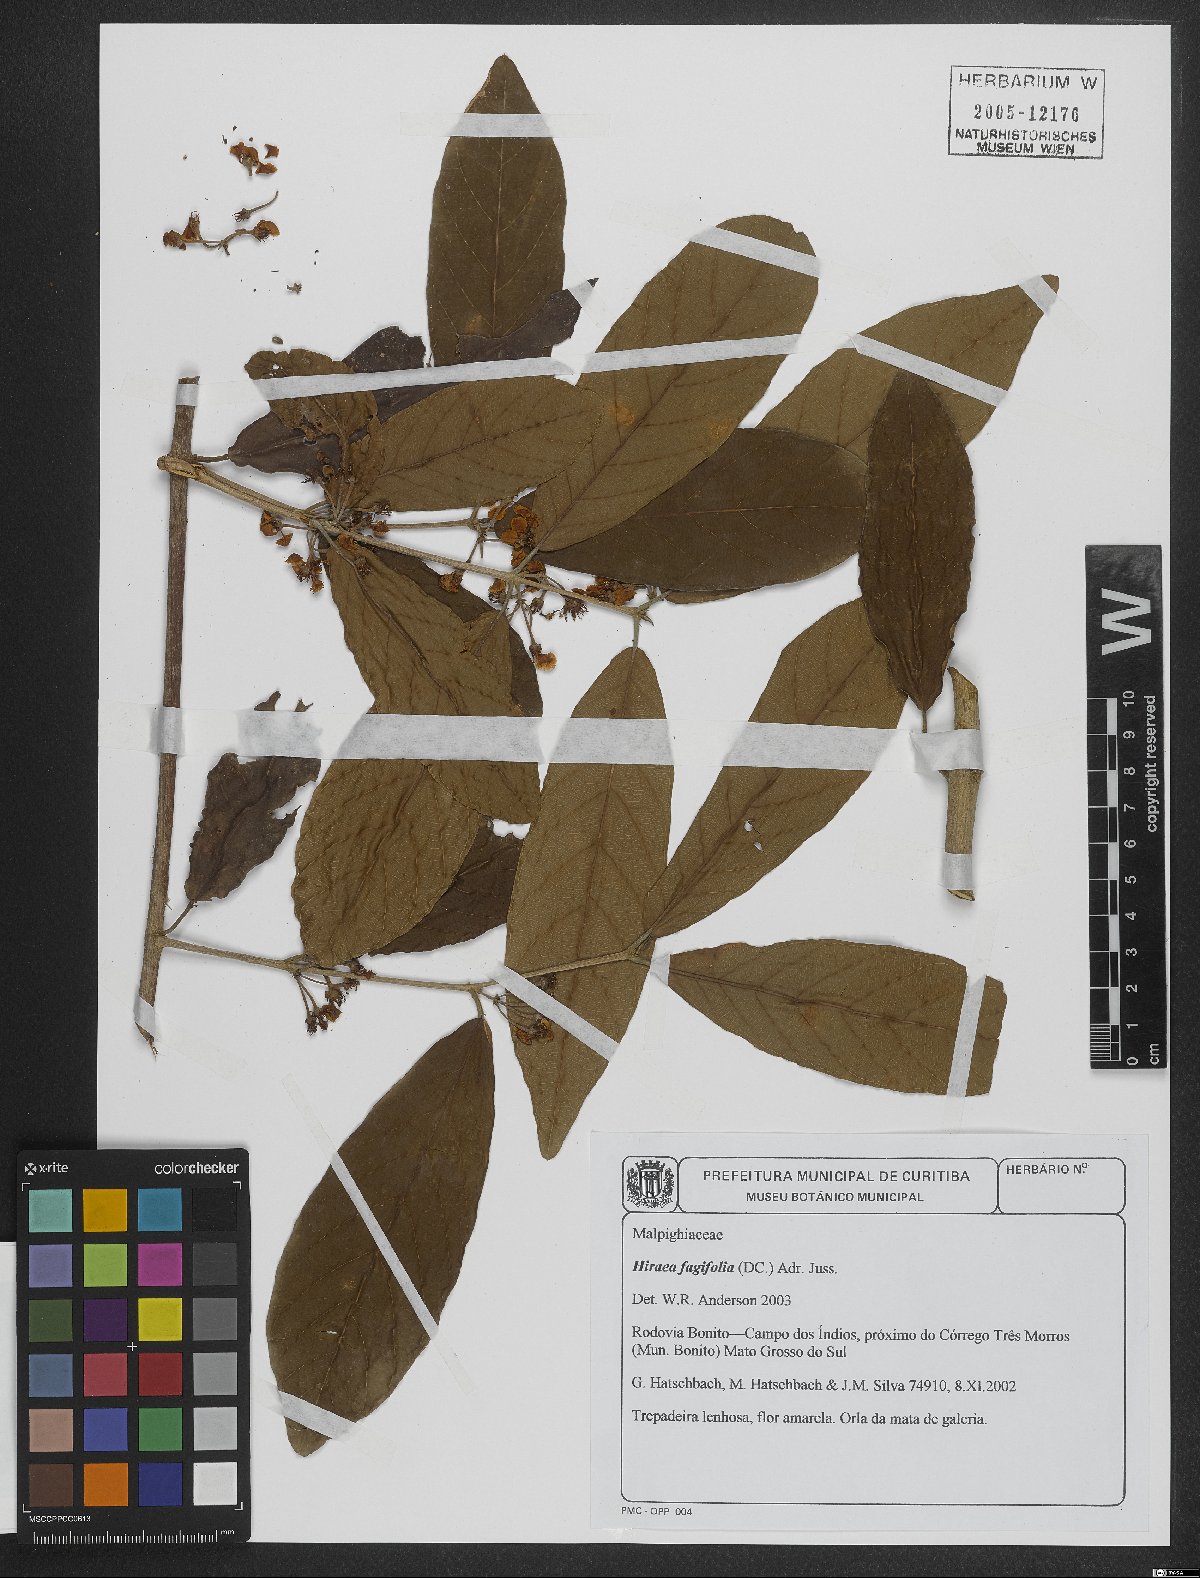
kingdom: Plantae
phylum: Tracheophyta
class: Magnoliopsida
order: Malpighiales
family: Malpighiaceae
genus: Hiraea
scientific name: Hiraea fagifolia
